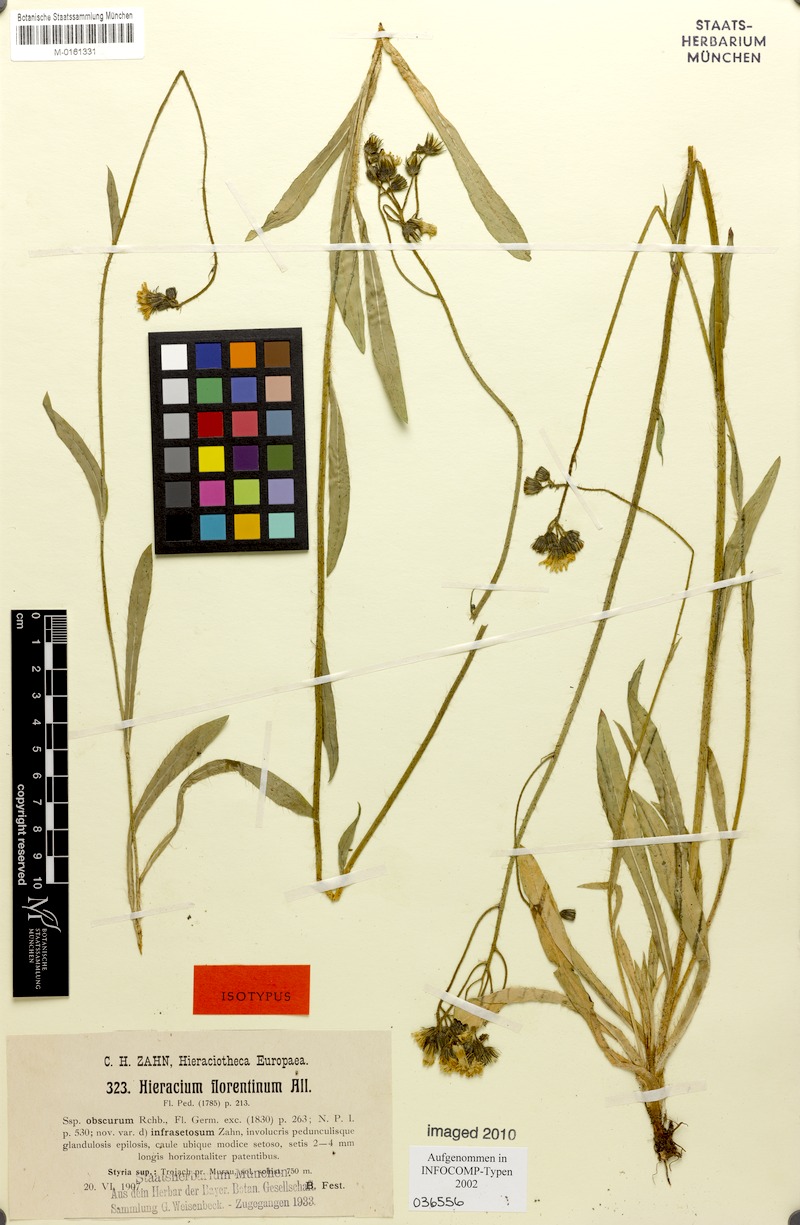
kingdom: Plantae
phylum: Tracheophyta
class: Magnoliopsida
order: Asterales
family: Asteraceae
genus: Pilosella
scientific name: Pilosella piloselloides
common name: Glaucous king-devil
